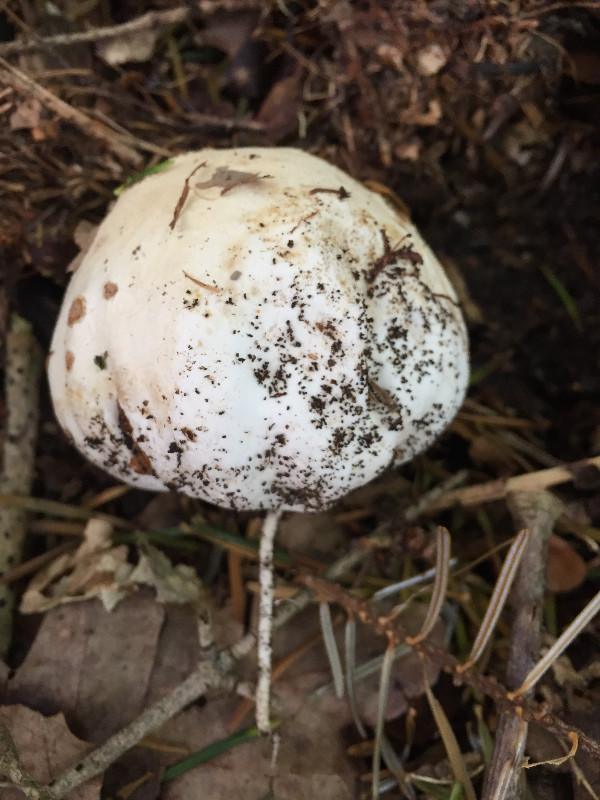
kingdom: Fungi
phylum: Basidiomycota
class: Agaricomycetes
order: Phallales
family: Phallaceae
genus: Phallus
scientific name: Phallus impudicus
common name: almindelig stinksvamp
